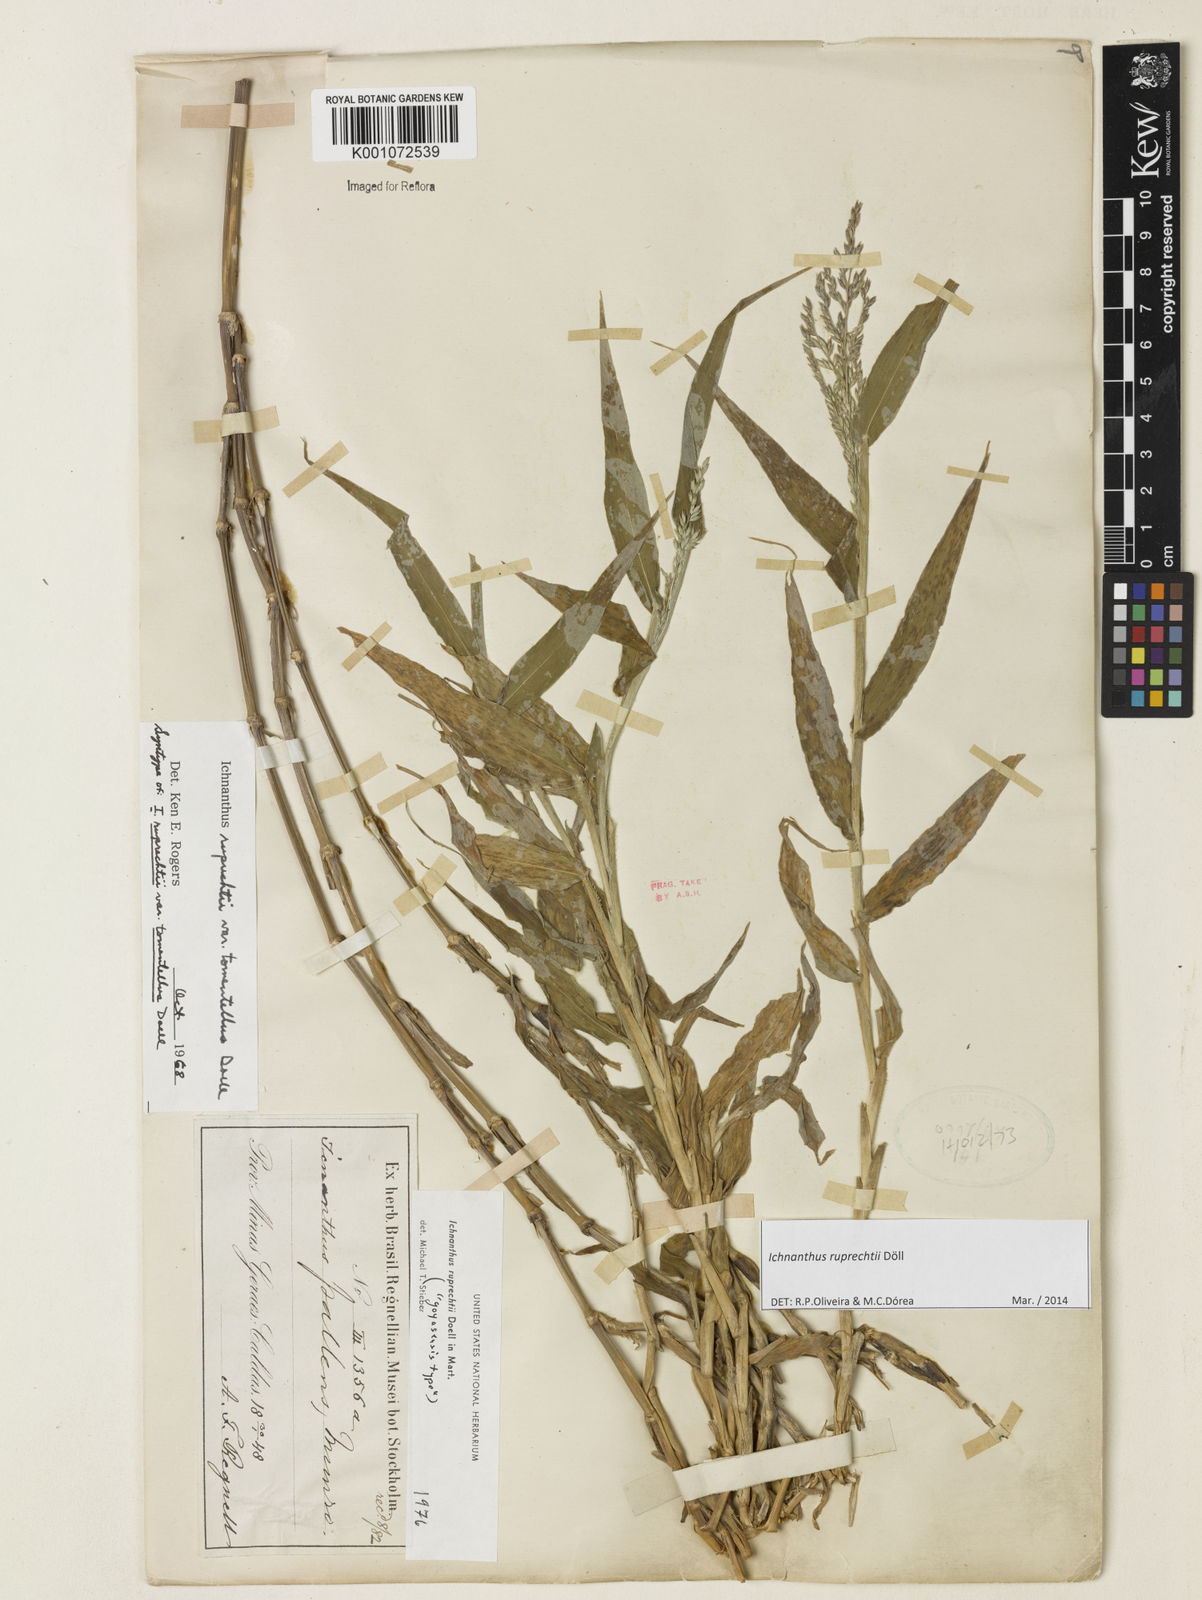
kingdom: Plantae
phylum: Tracheophyta
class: Liliopsida
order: Poales
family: Poaceae
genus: Ichnanthus
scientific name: Ichnanthus
